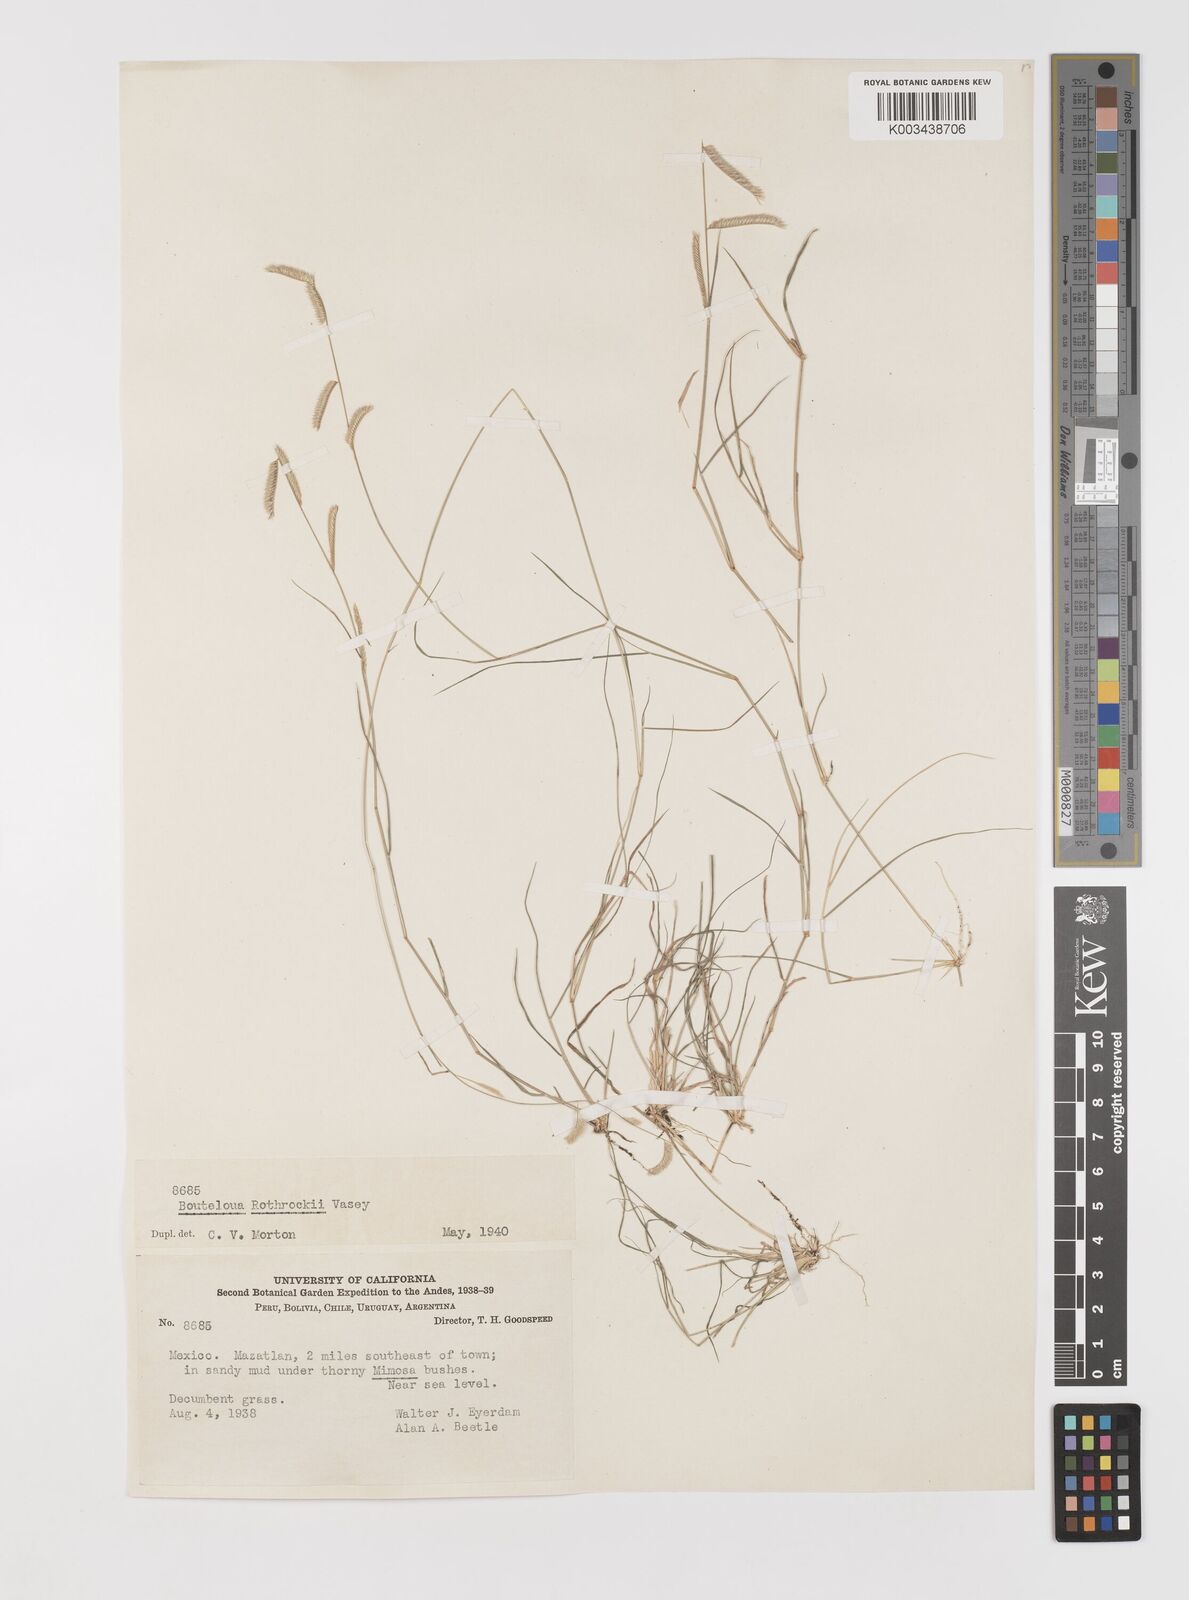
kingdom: Plantae
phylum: Tracheophyta
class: Liliopsida
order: Poales
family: Poaceae
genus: Bouteloua
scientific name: Bouteloua barbata
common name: Six-weeks grama
